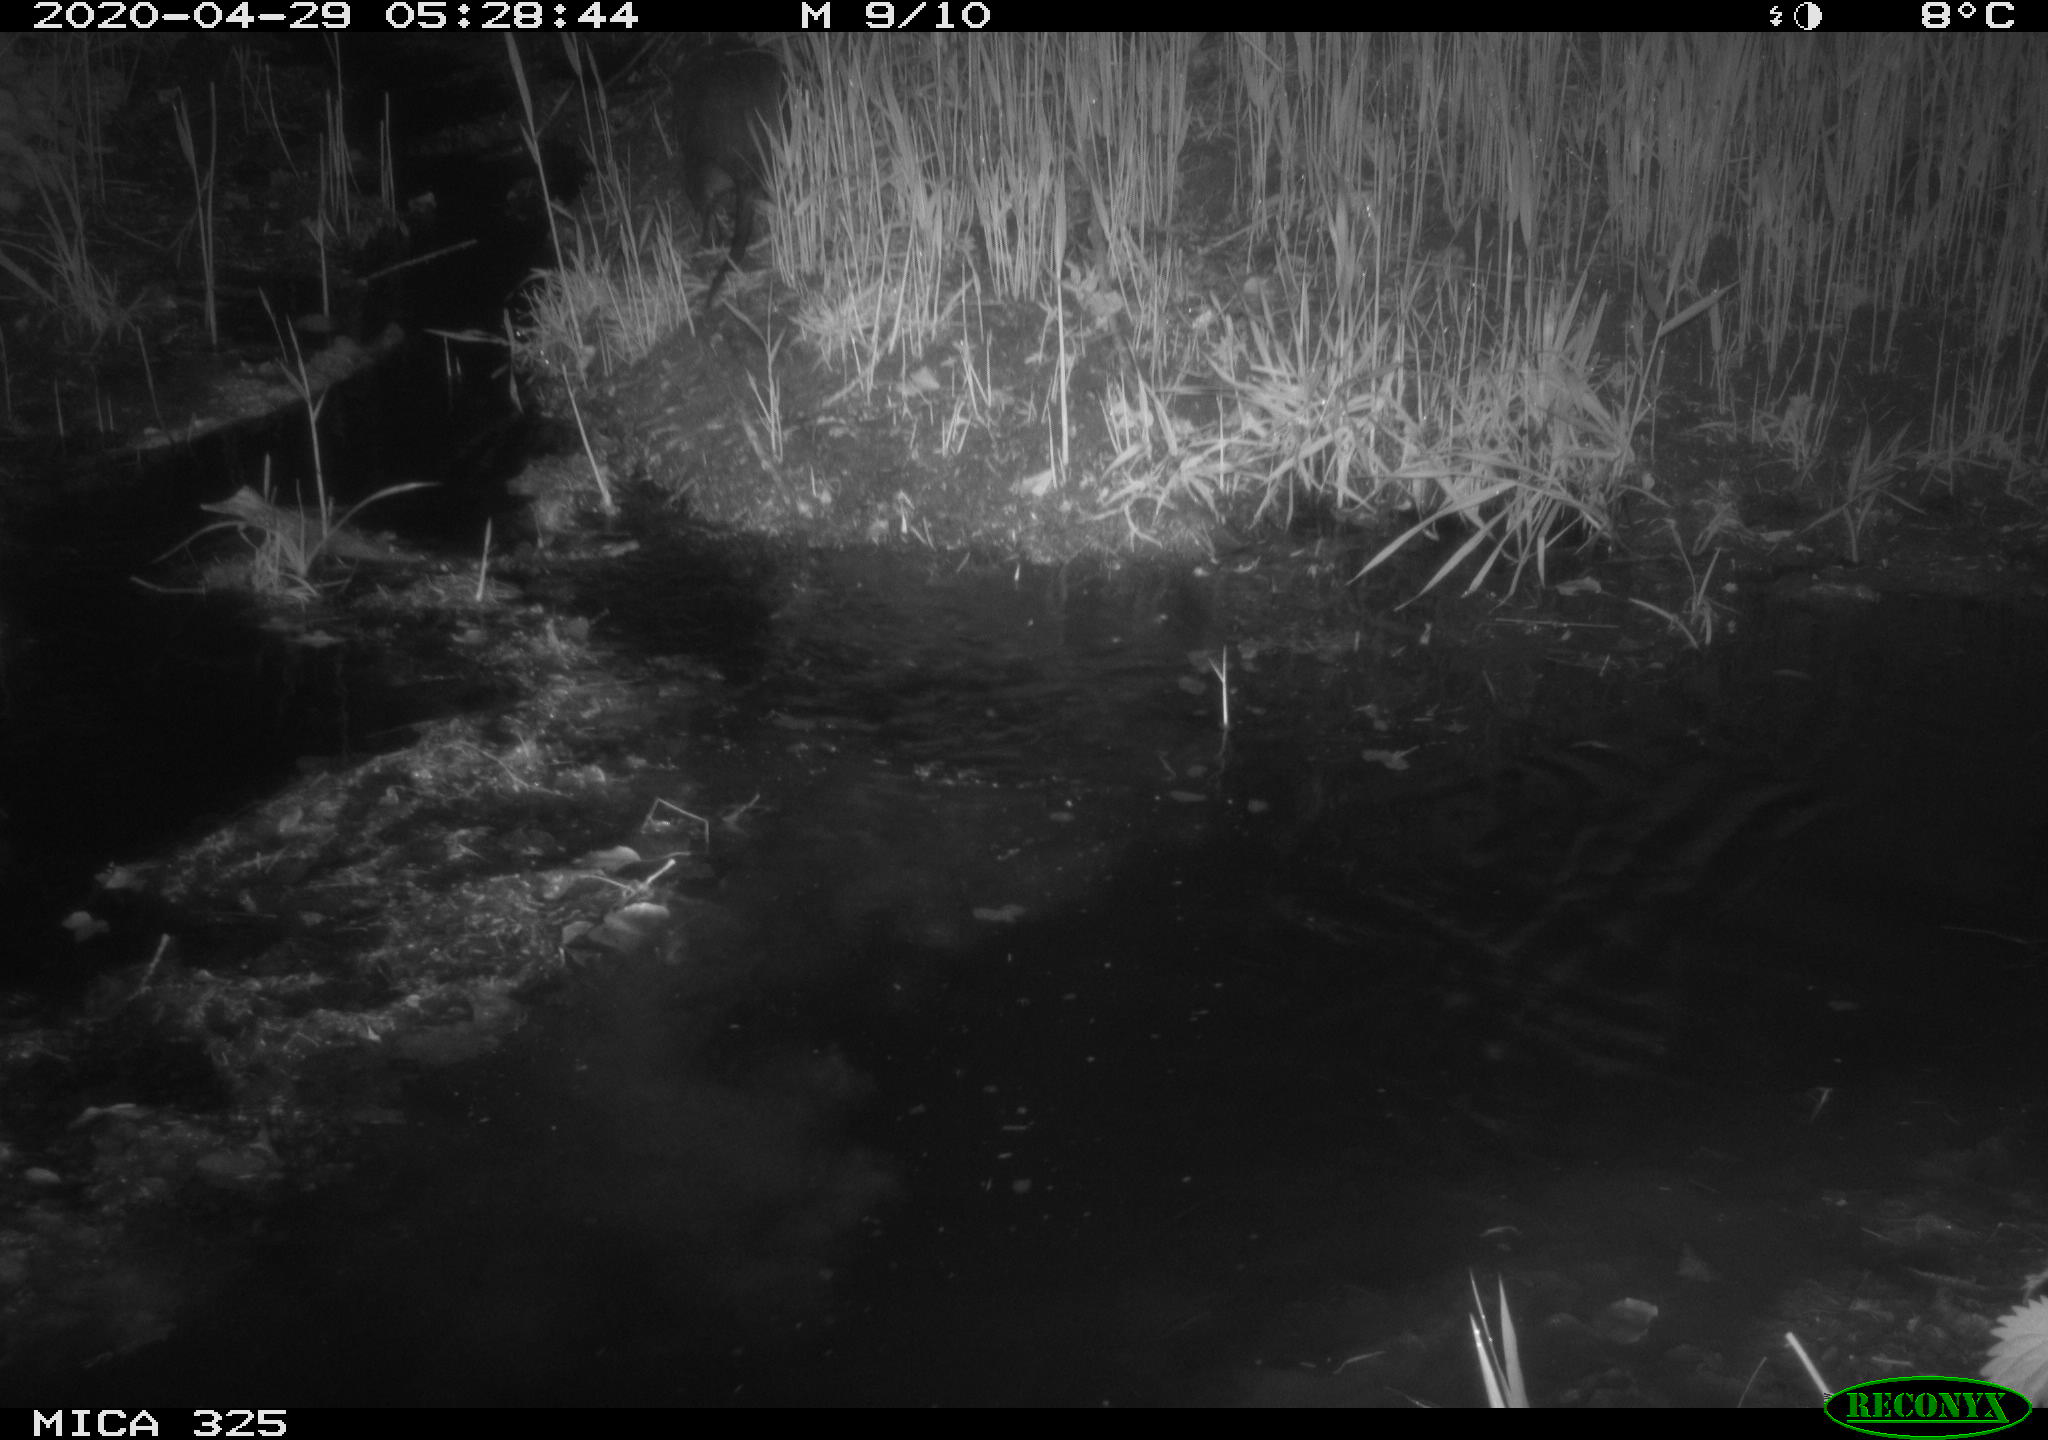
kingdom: Animalia
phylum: Chordata
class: Mammalia
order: Rodentia
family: Myocastoridae
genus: Myocastor
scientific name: Myocastor coypus
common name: Coypu
